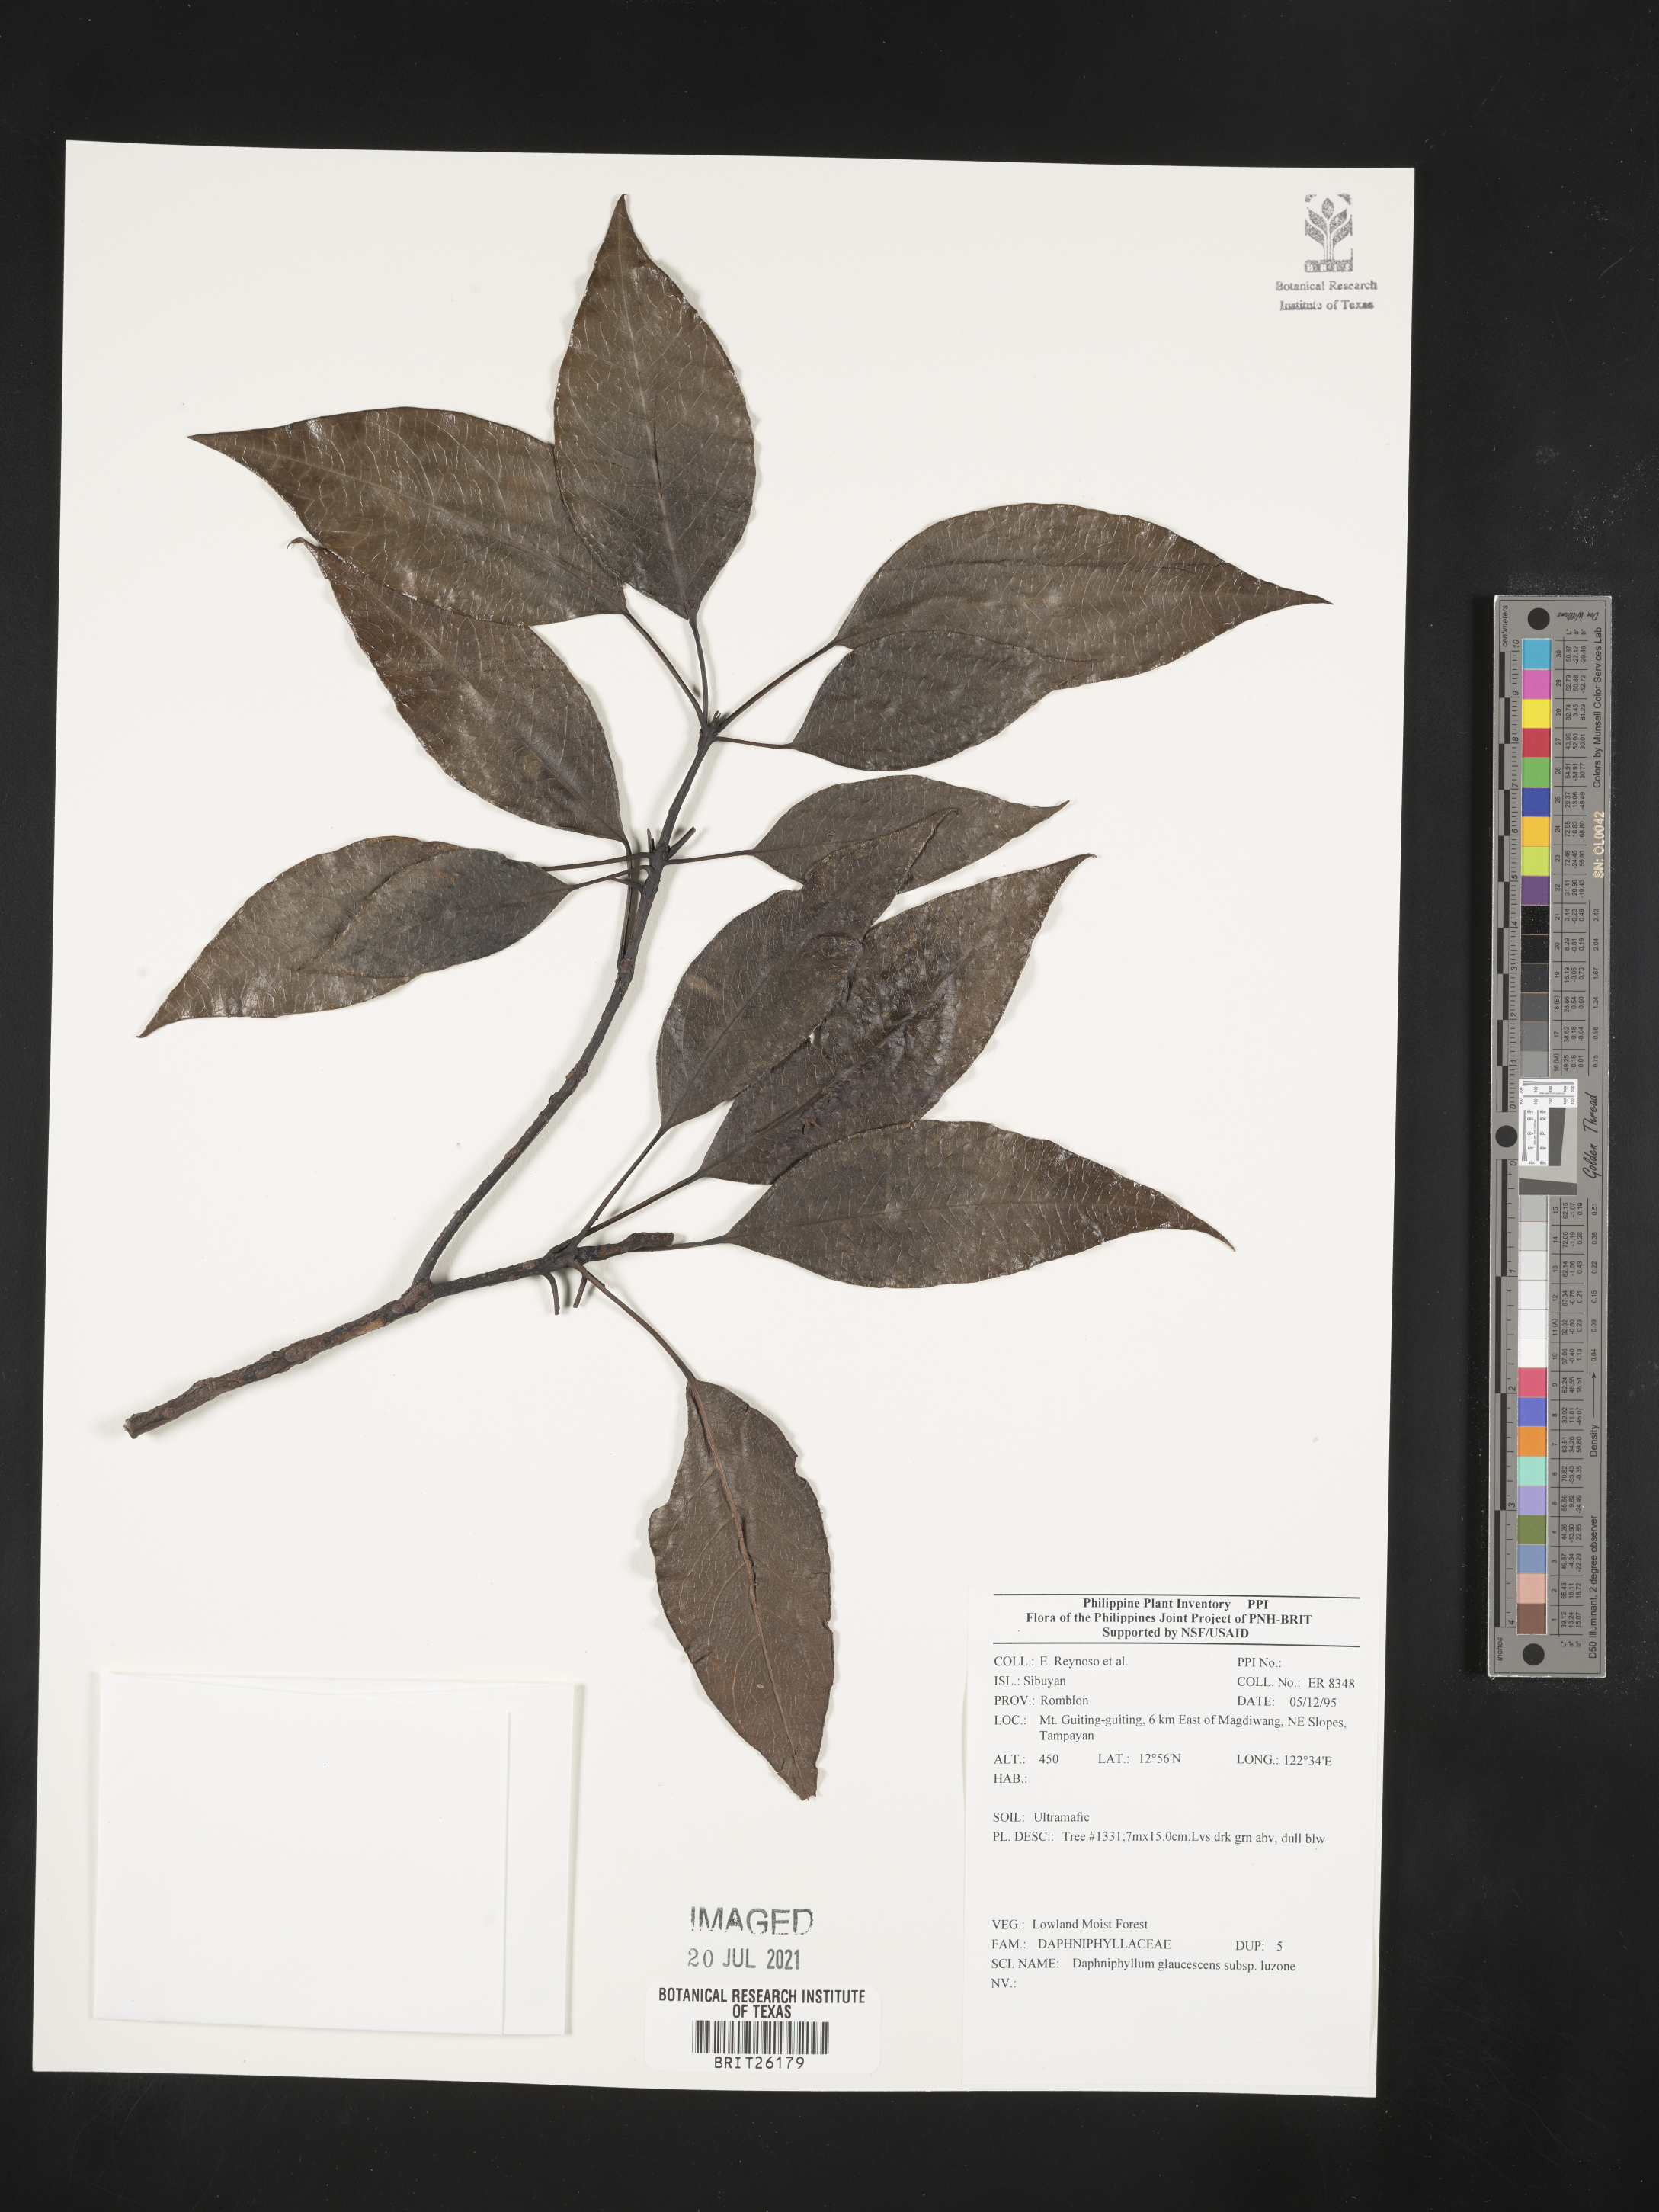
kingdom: Plantae
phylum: Tracheophyta
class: Magnoliopsida
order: Saxifragales
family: Daphniphyllaceae
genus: Daphniphyllum
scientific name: Daphniphyllum glaucescens
